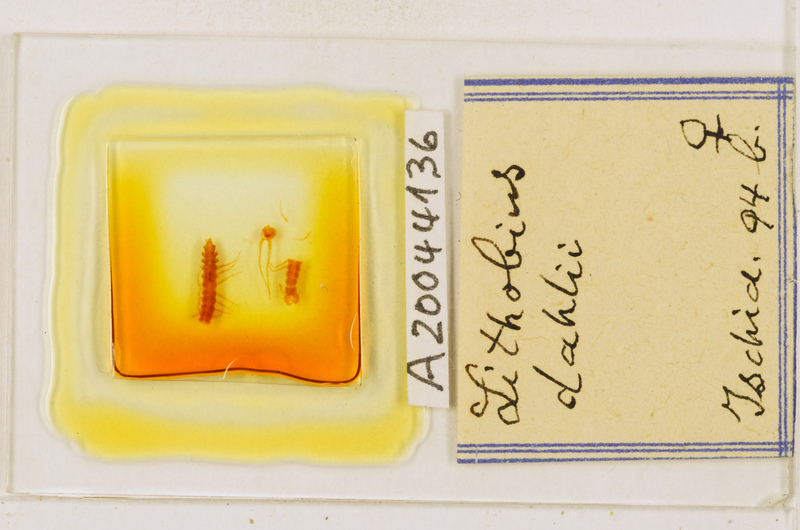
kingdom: Animalia
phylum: Arthropoda
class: Chilopoda
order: Lithobiomorpha
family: Lithobiidae
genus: Lithobius
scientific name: Lithobius dahlii
